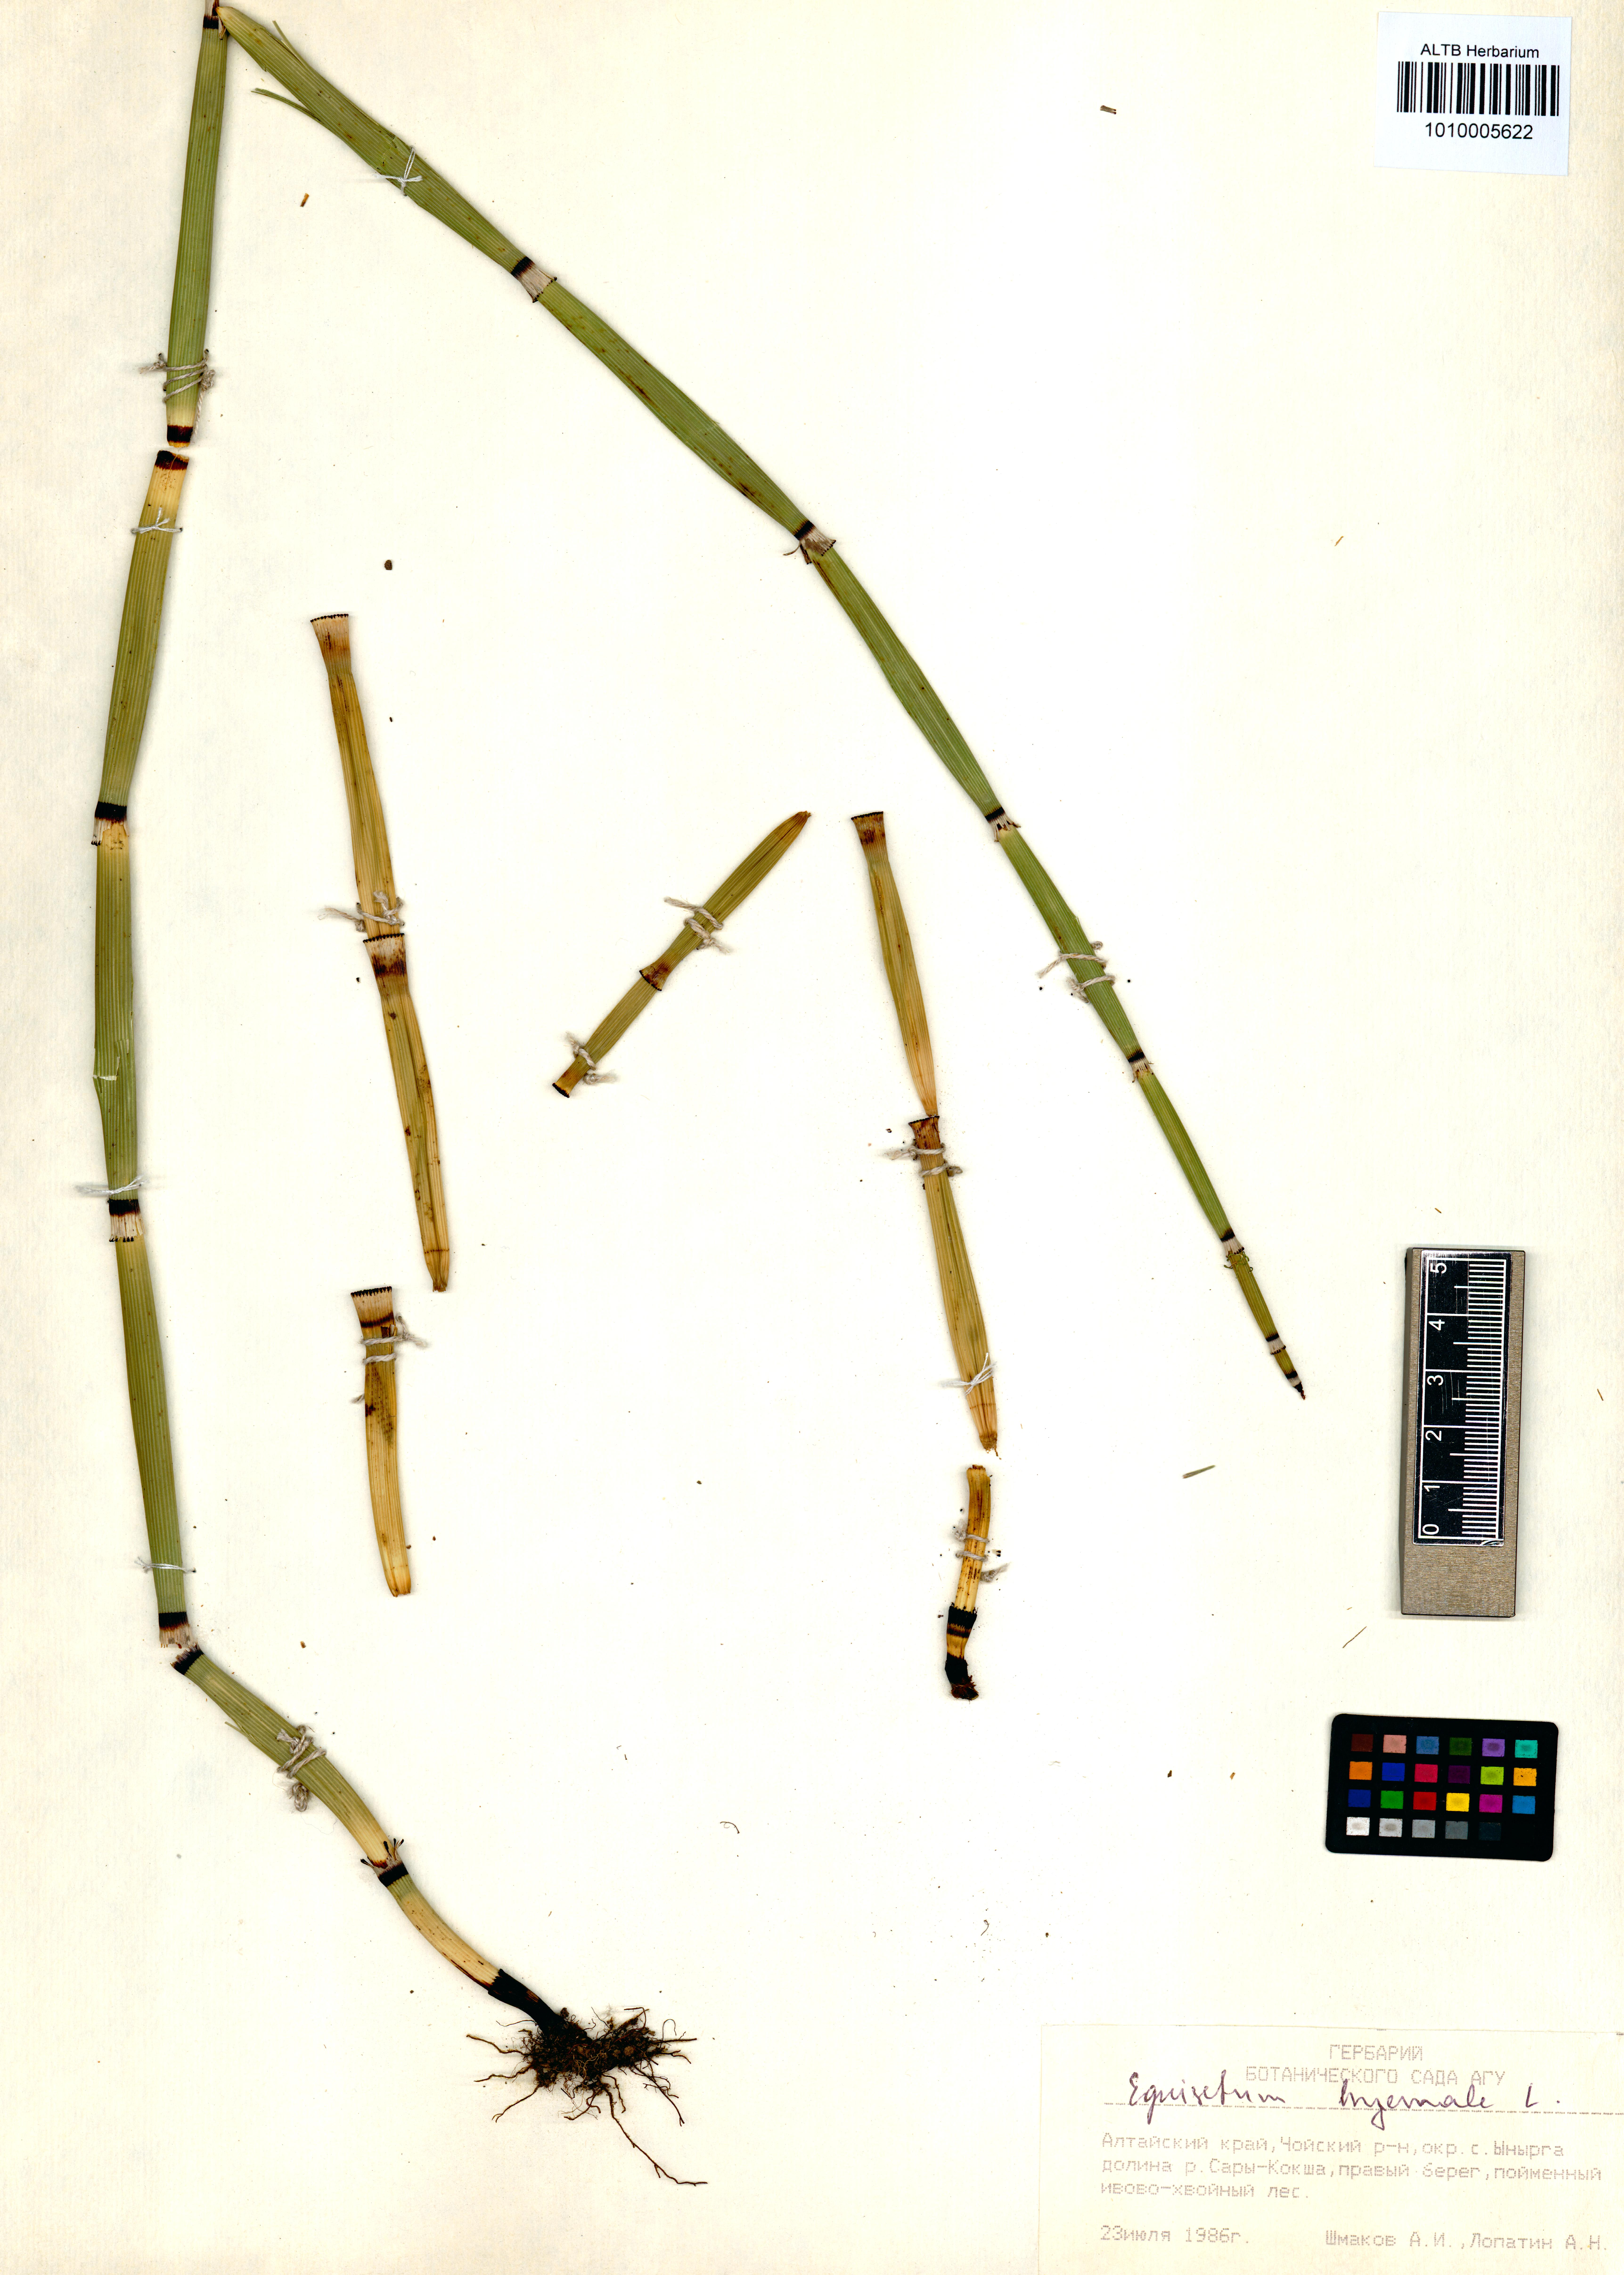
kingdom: Plantae
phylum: Tracheophyta
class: Polypodiopsida
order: Equisetales
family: Equisetaceae
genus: Equisetum
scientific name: Equisetum hyemale
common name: Rough horsetail
